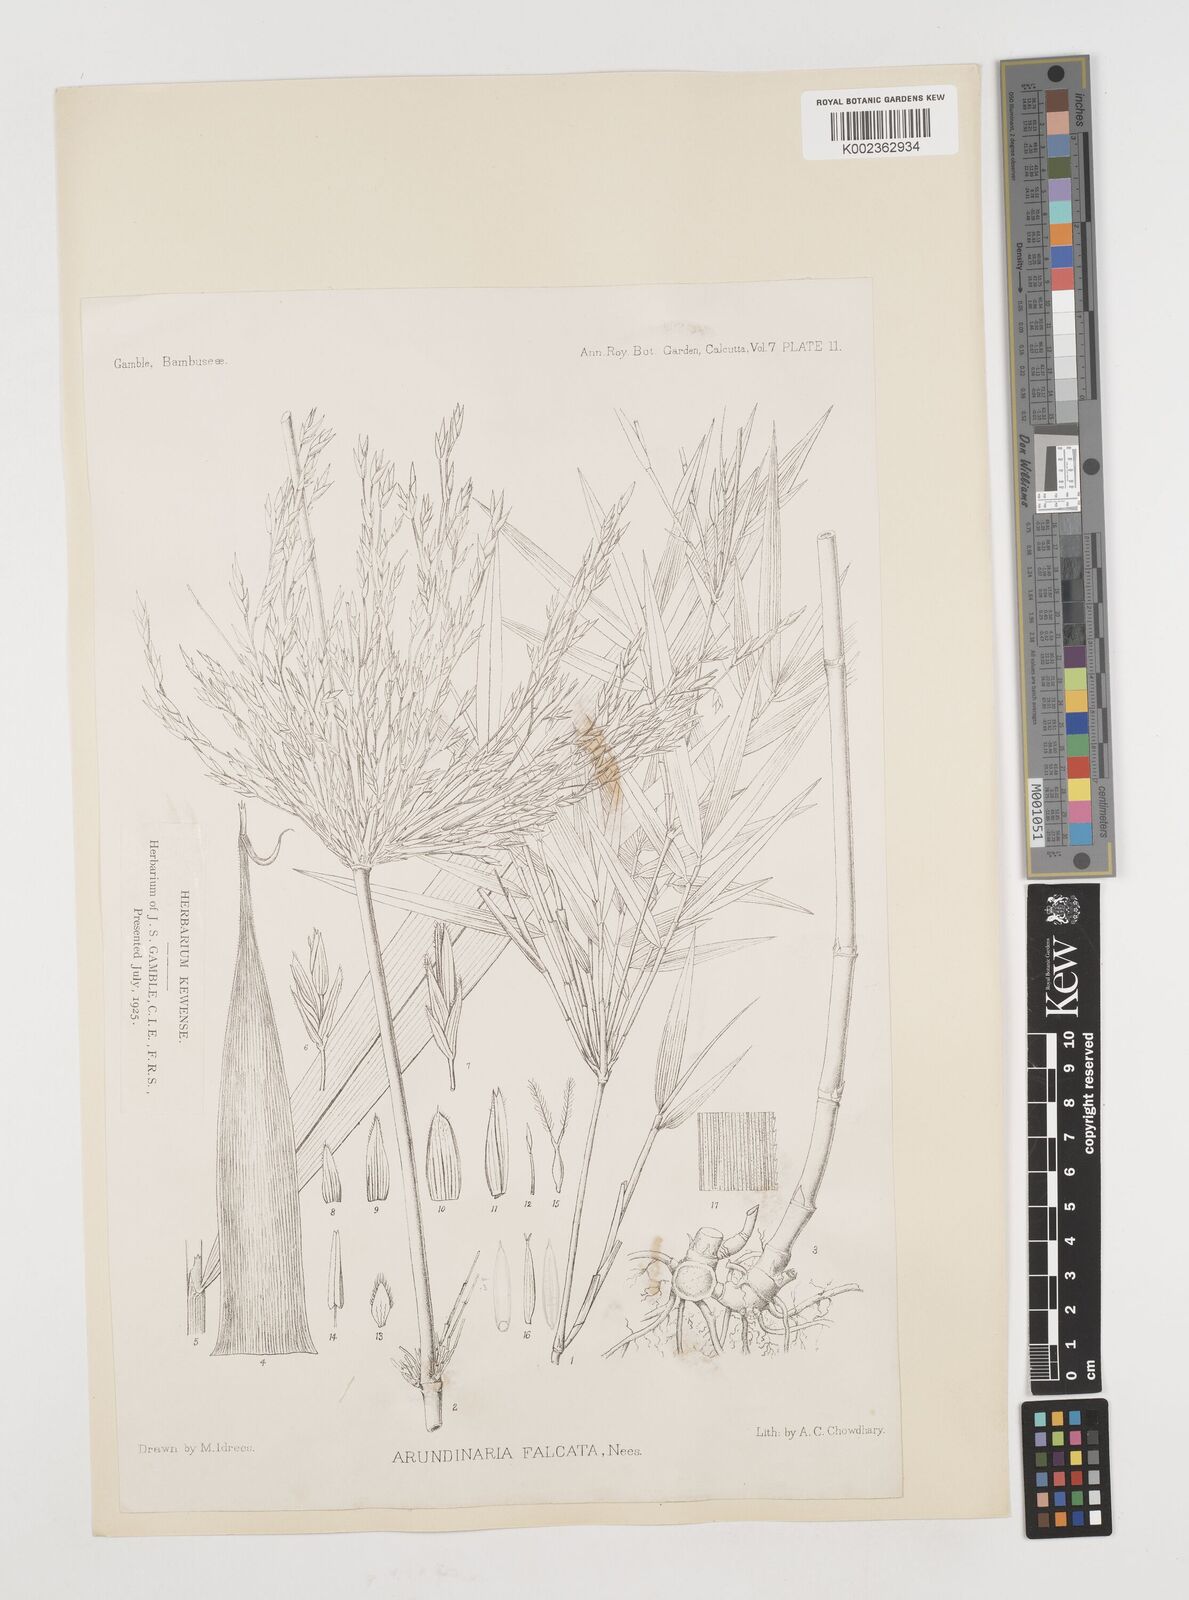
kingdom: Plantae
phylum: Tracheophyta
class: Liliopsida
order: Poales
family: Poaceae
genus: Drepanostachyum
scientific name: Drepanostachyum falcatum
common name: Himalayan bamboo
